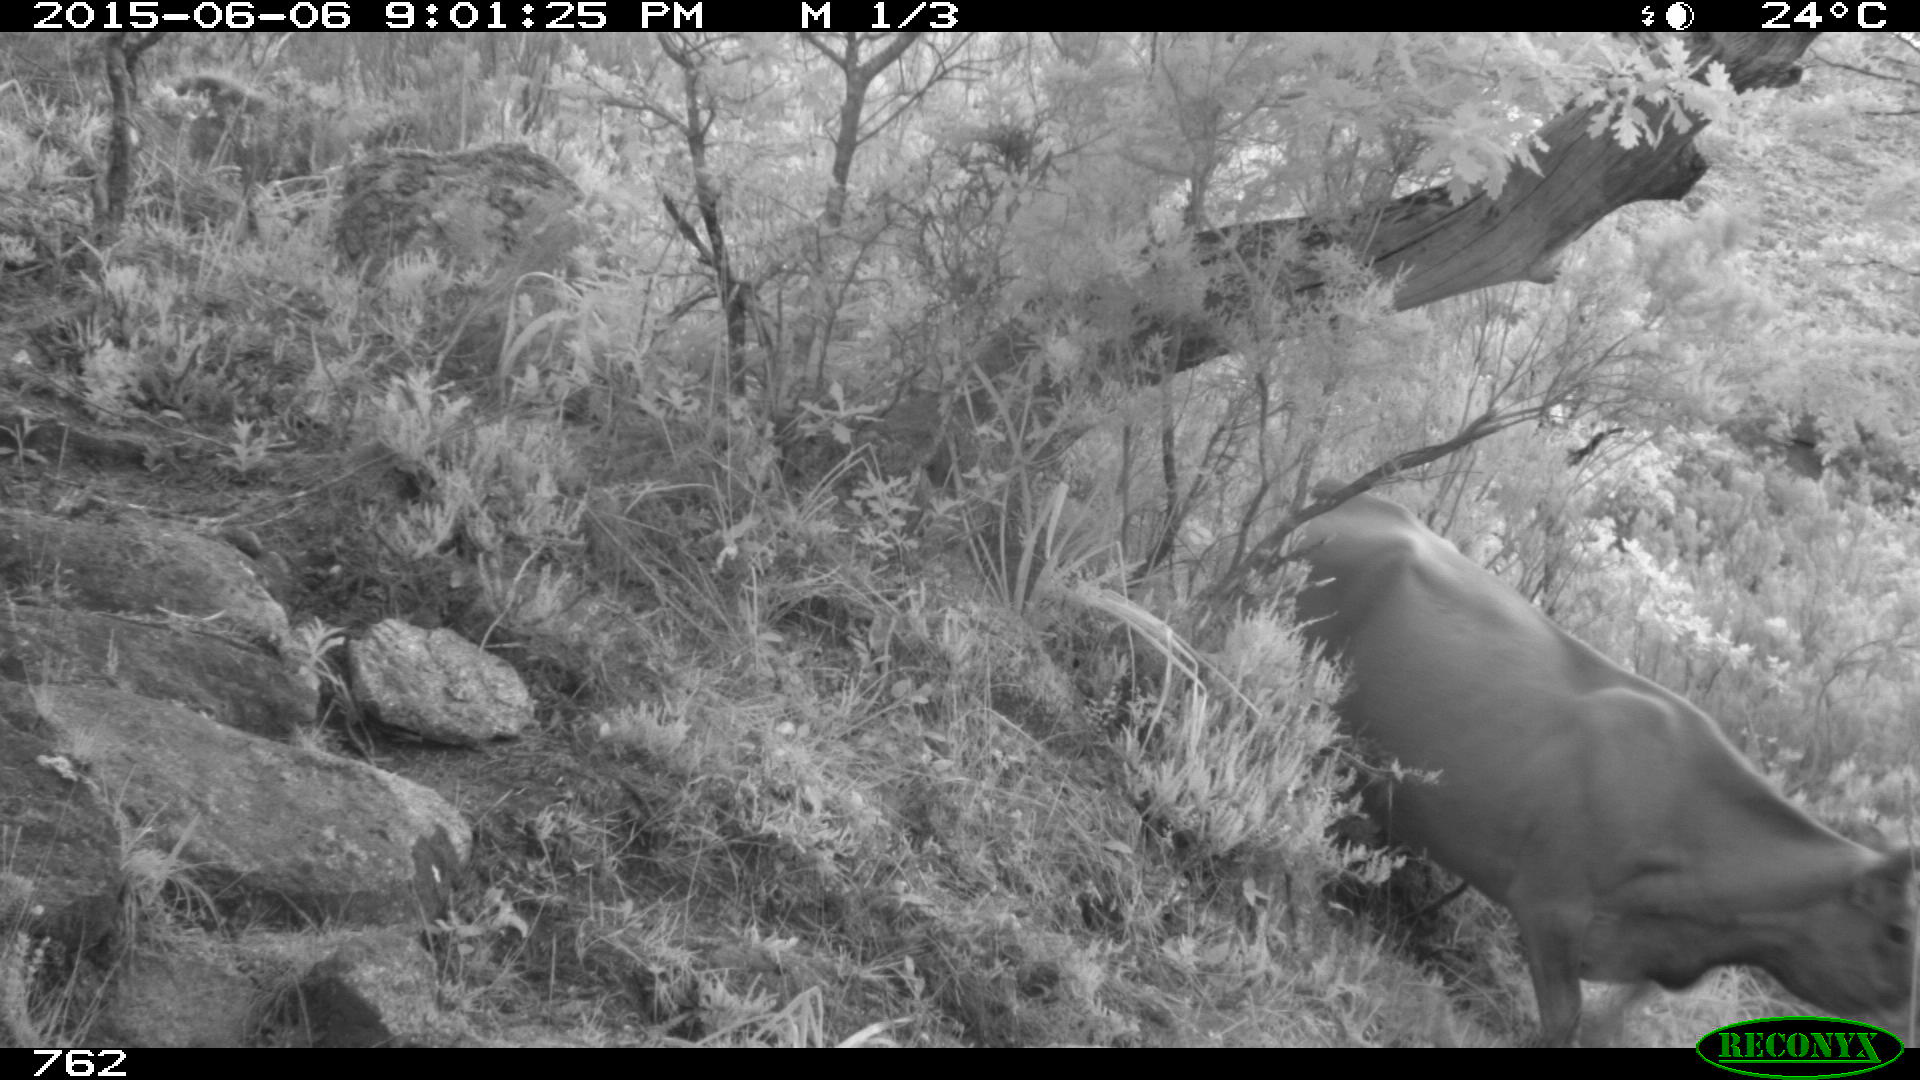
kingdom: Animalia
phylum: Chordata
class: Mammalia
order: Artiodactyla
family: Bovidae
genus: Bos
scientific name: Bos taurus
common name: Domesticated cattle
